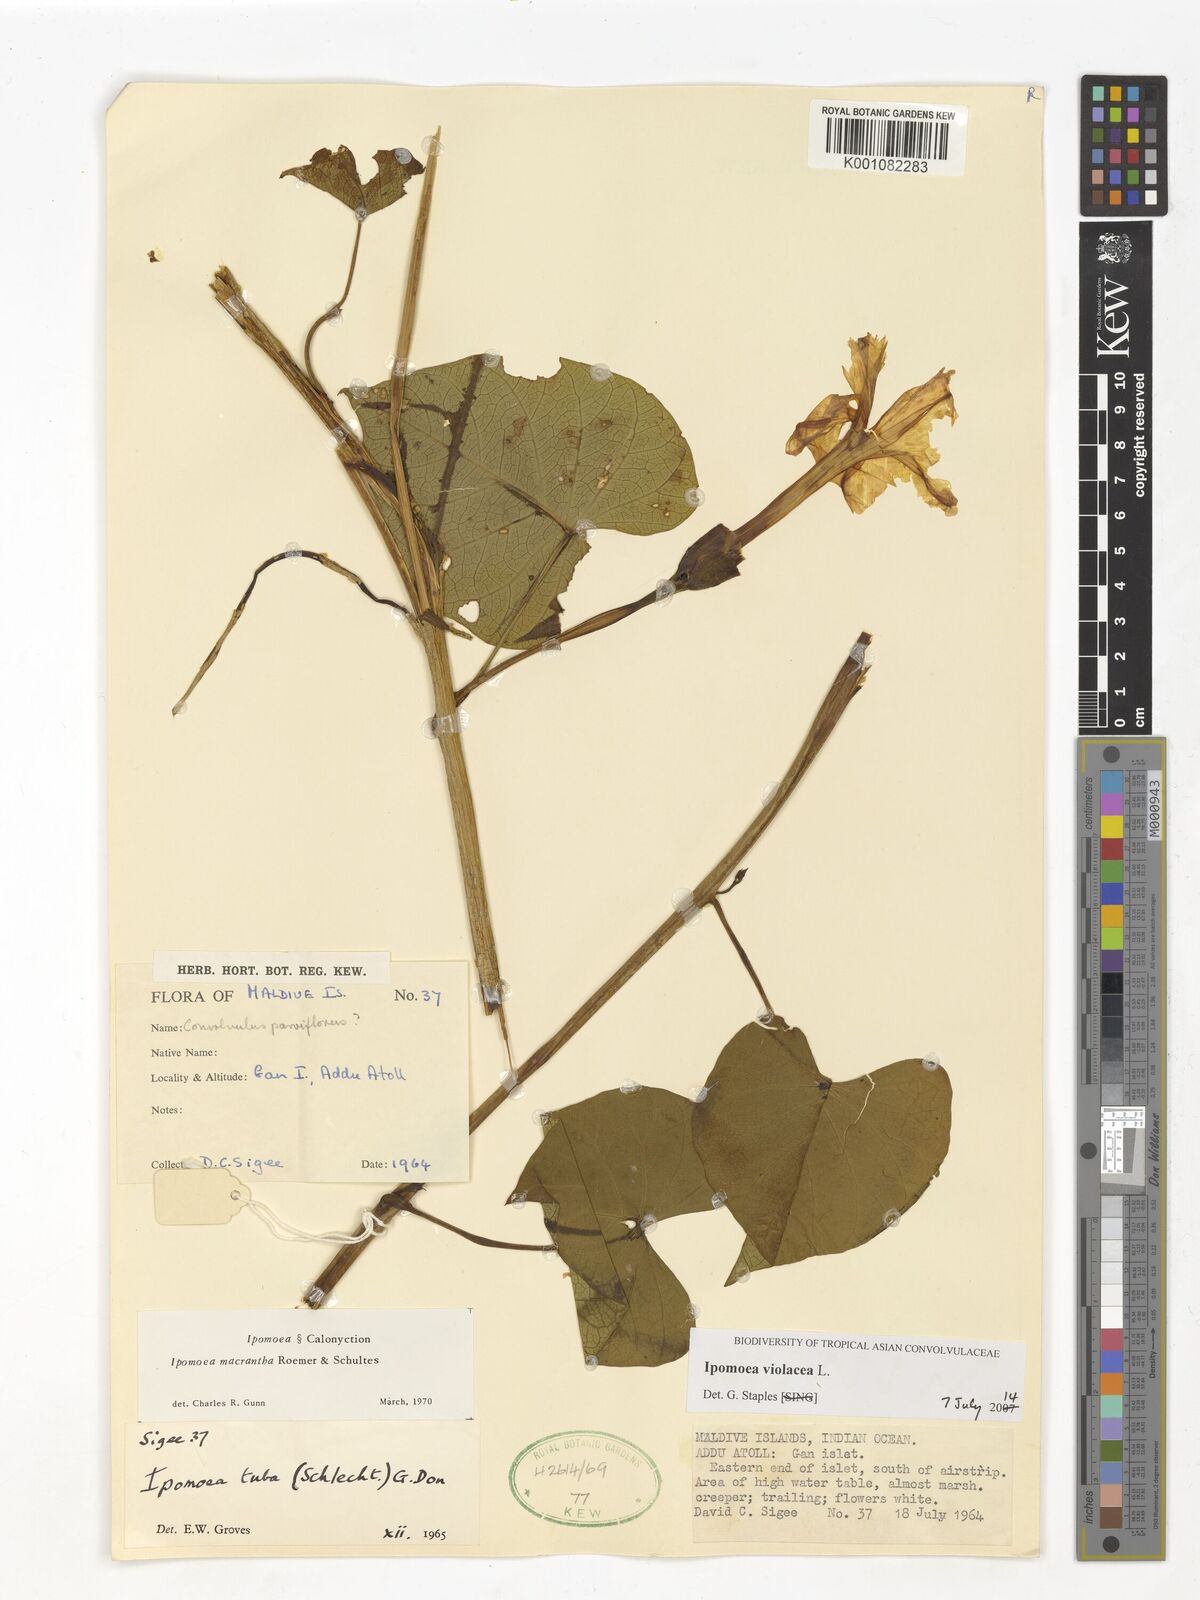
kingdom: Plantae
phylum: Tracheophyta
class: Magnoliopsida
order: Solanales
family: Convolvulaceae
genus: Ipomoea
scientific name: Ipomoea violacea
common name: Beach moonflower
